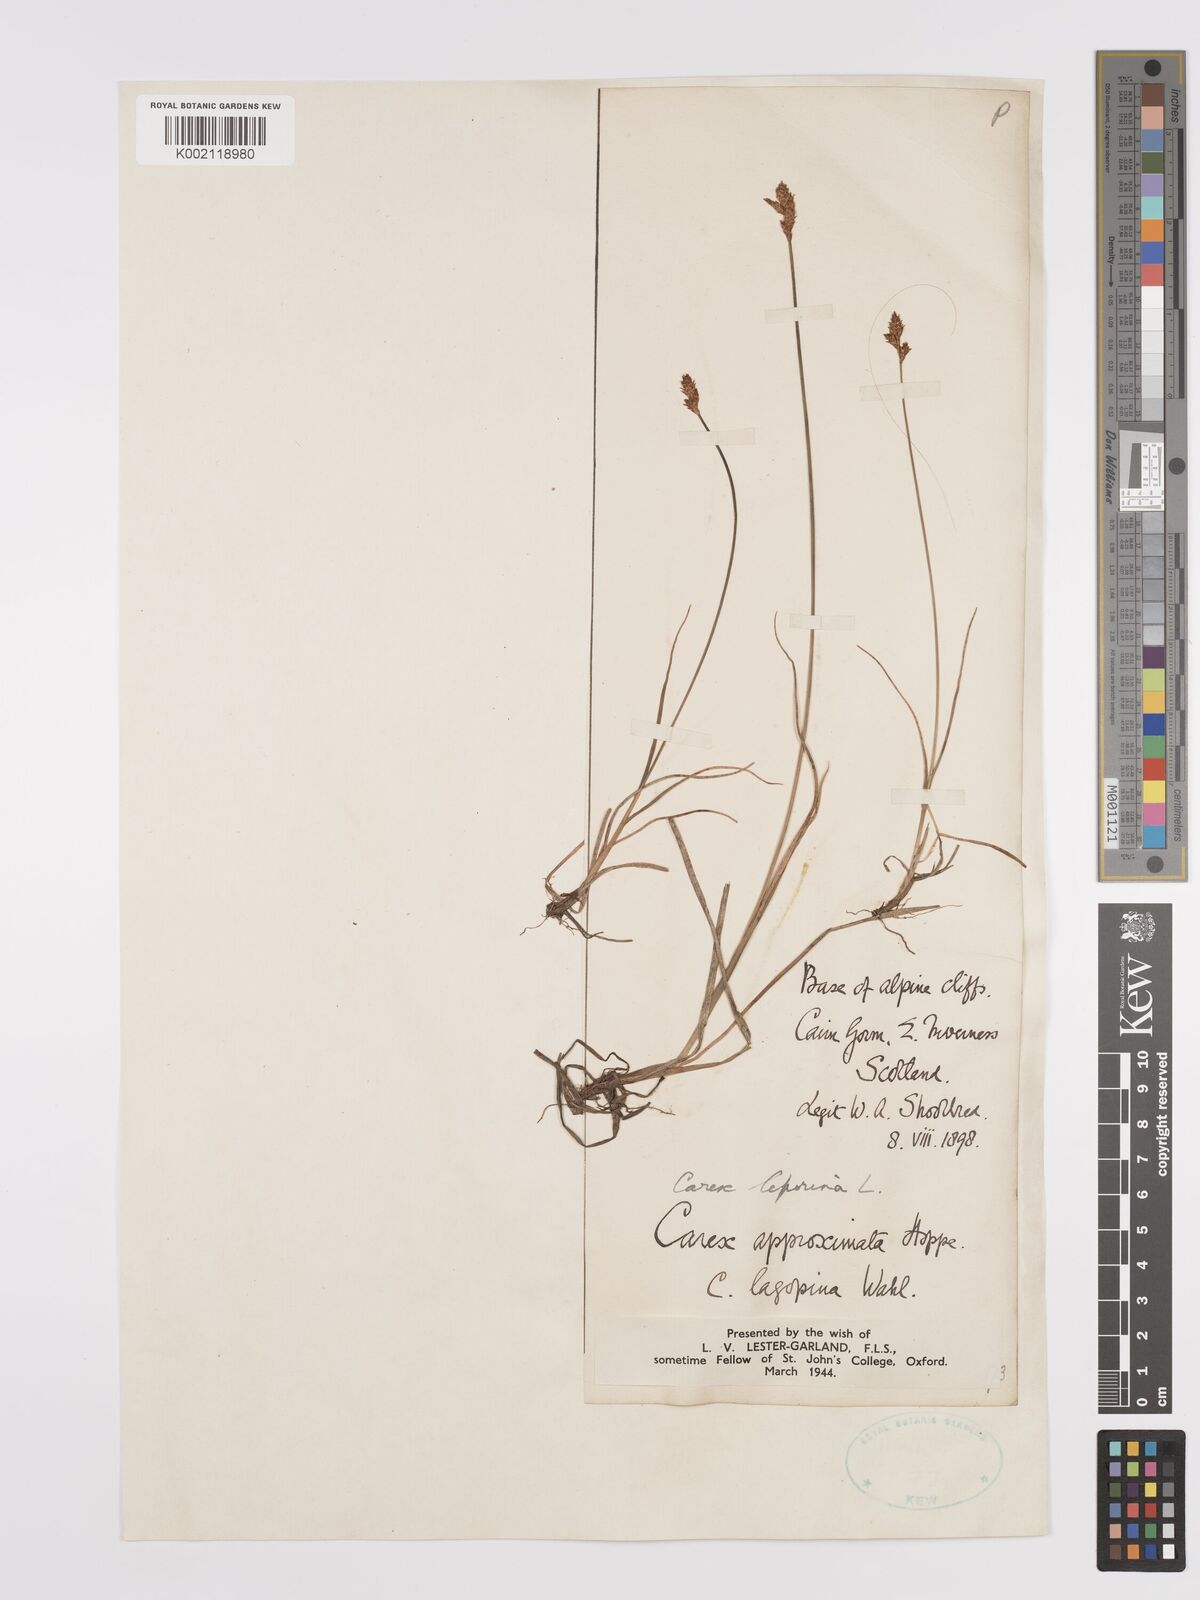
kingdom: Plantae
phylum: Tracheophyta
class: Liliopsida
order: Poales
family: Cyperaceae
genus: Carex
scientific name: Carex leporina
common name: Oval sedge
